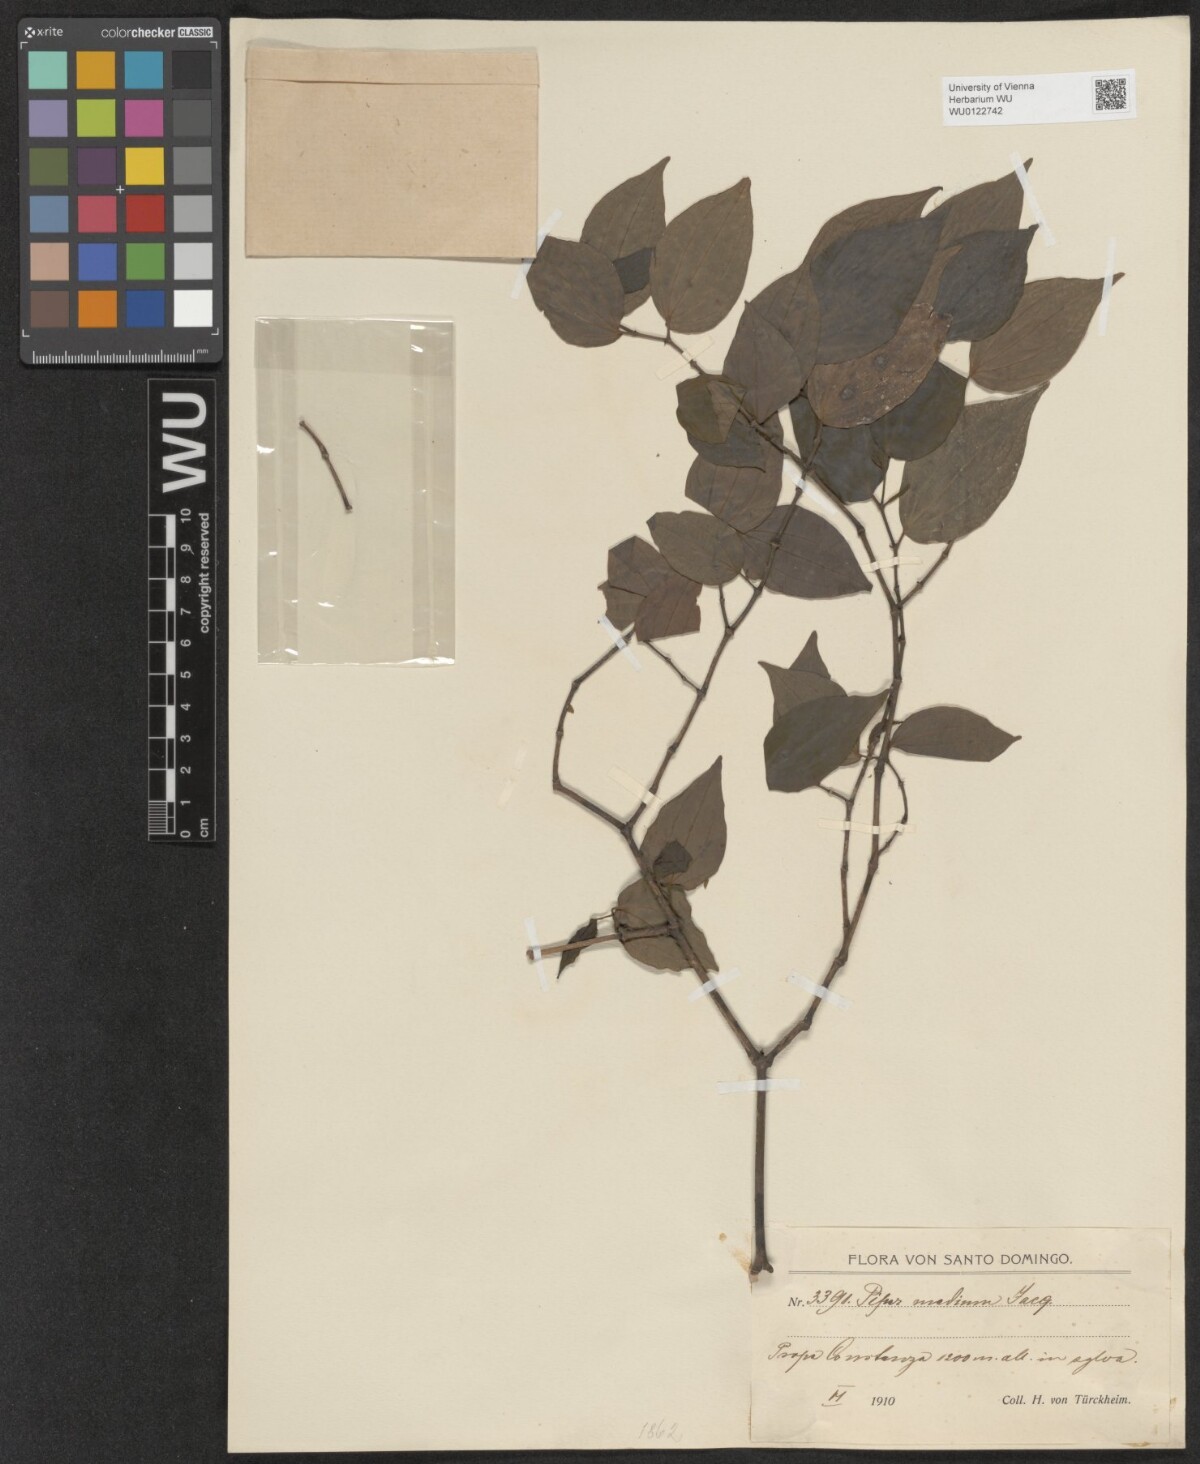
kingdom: Plantae
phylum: Tracheophyta
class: Magnoliopsida
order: Piperales
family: Piperaceae
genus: Piper
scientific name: Piper amalago
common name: Pepper-elder
